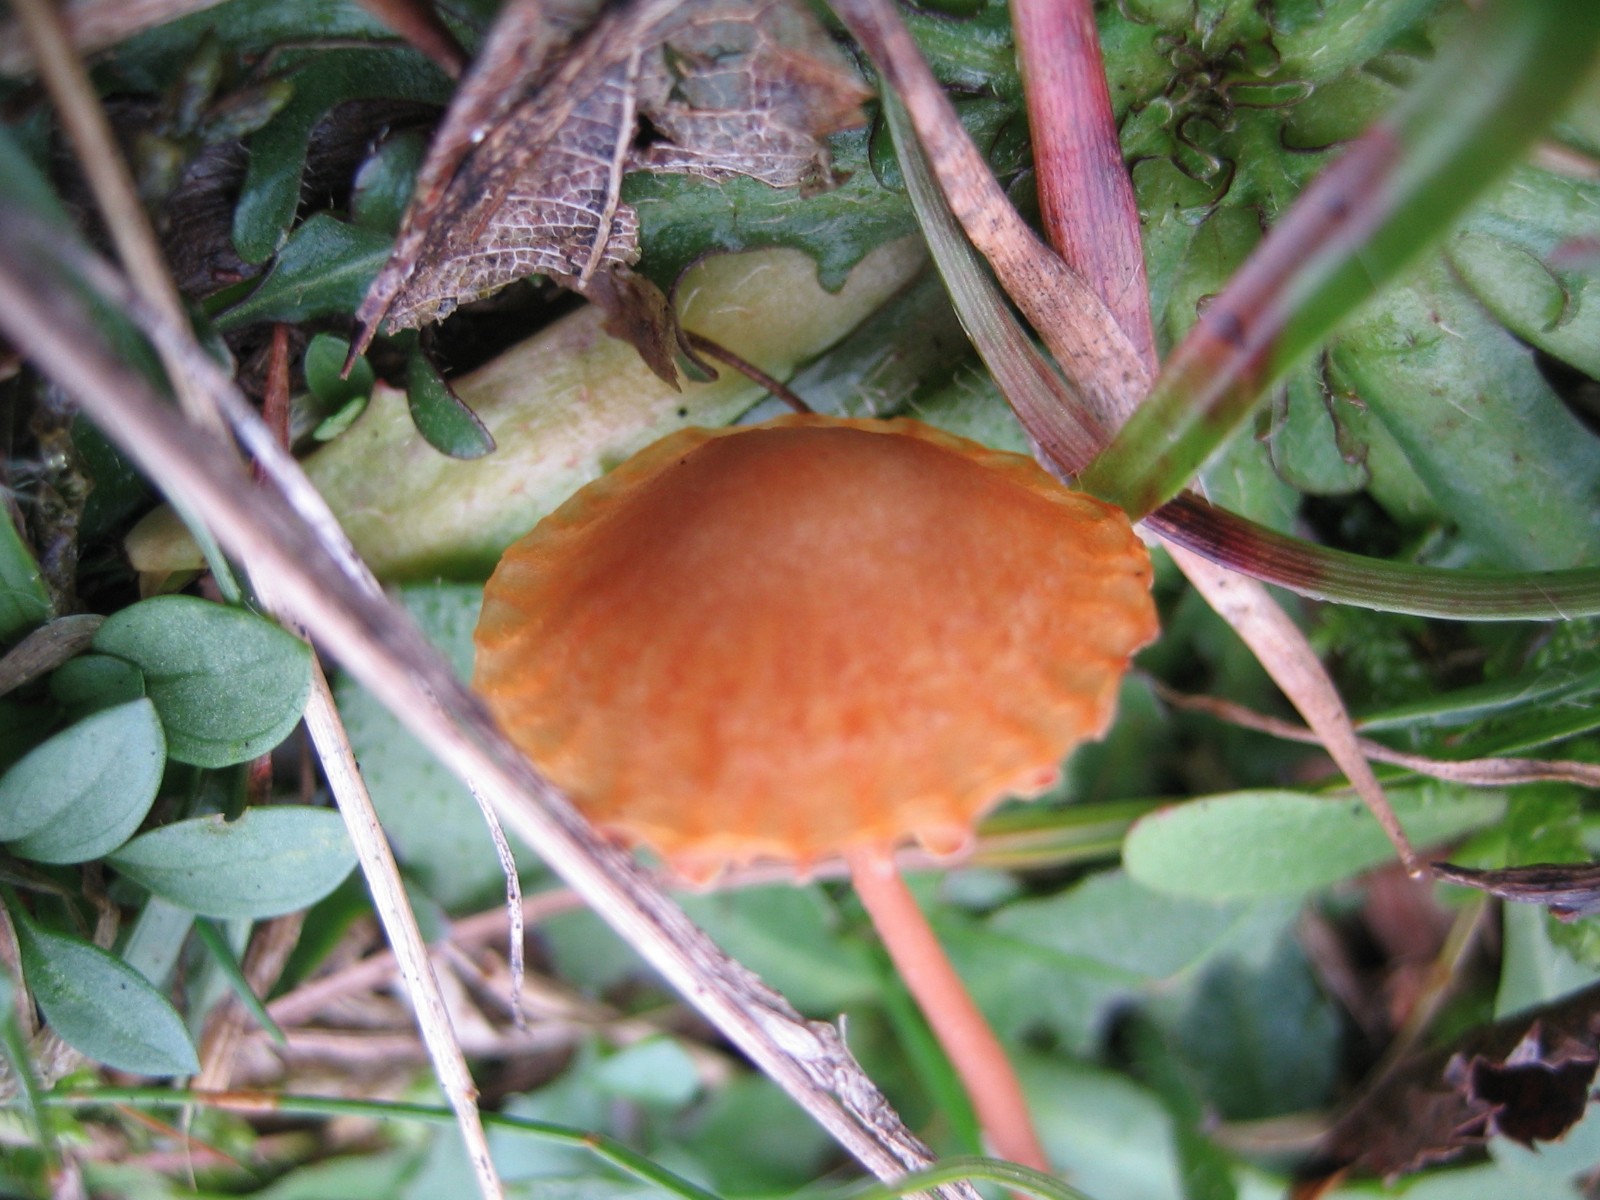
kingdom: Fungi
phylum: Basidiomycota
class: Agaricomycetes
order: Agaricales
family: Hymenogastraceae
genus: Galerina
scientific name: Galerina
